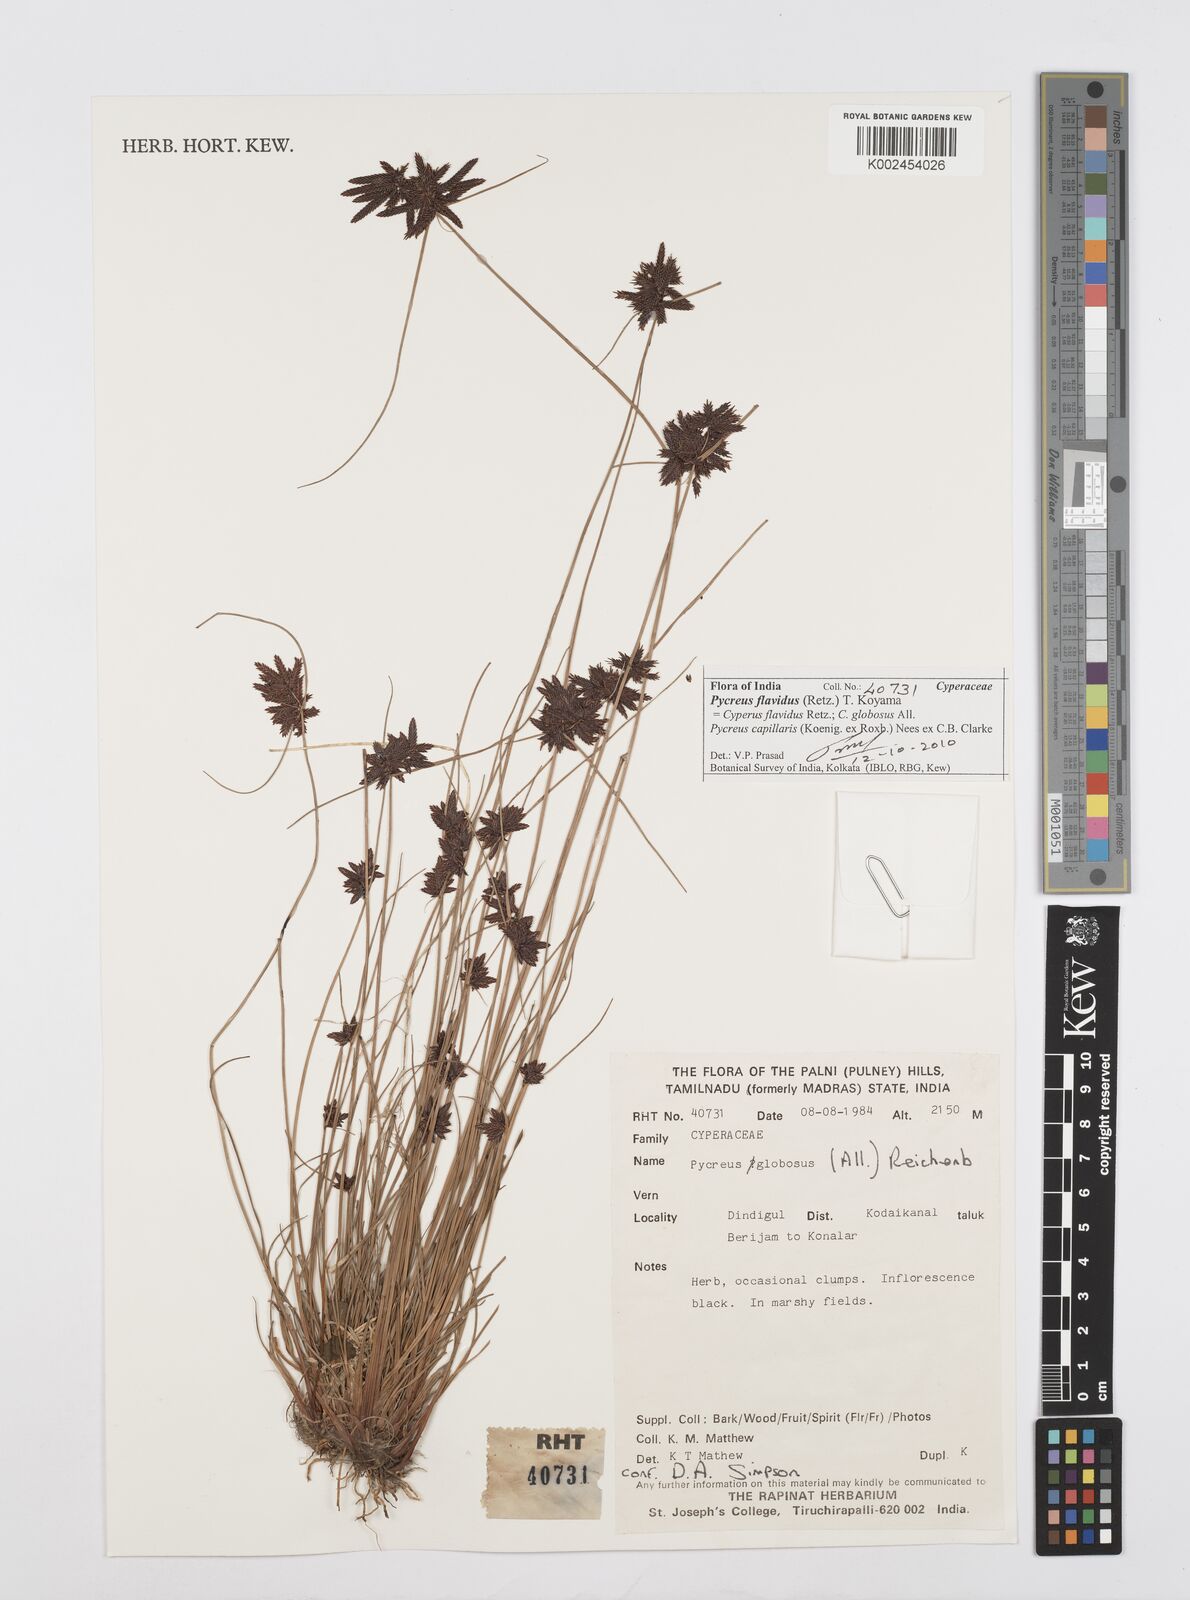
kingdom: Plantae
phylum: Tracheophyta
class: Liliopsida
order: Poales
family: Cyperaceae
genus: Cyperus
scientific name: Cyperus flavidus
